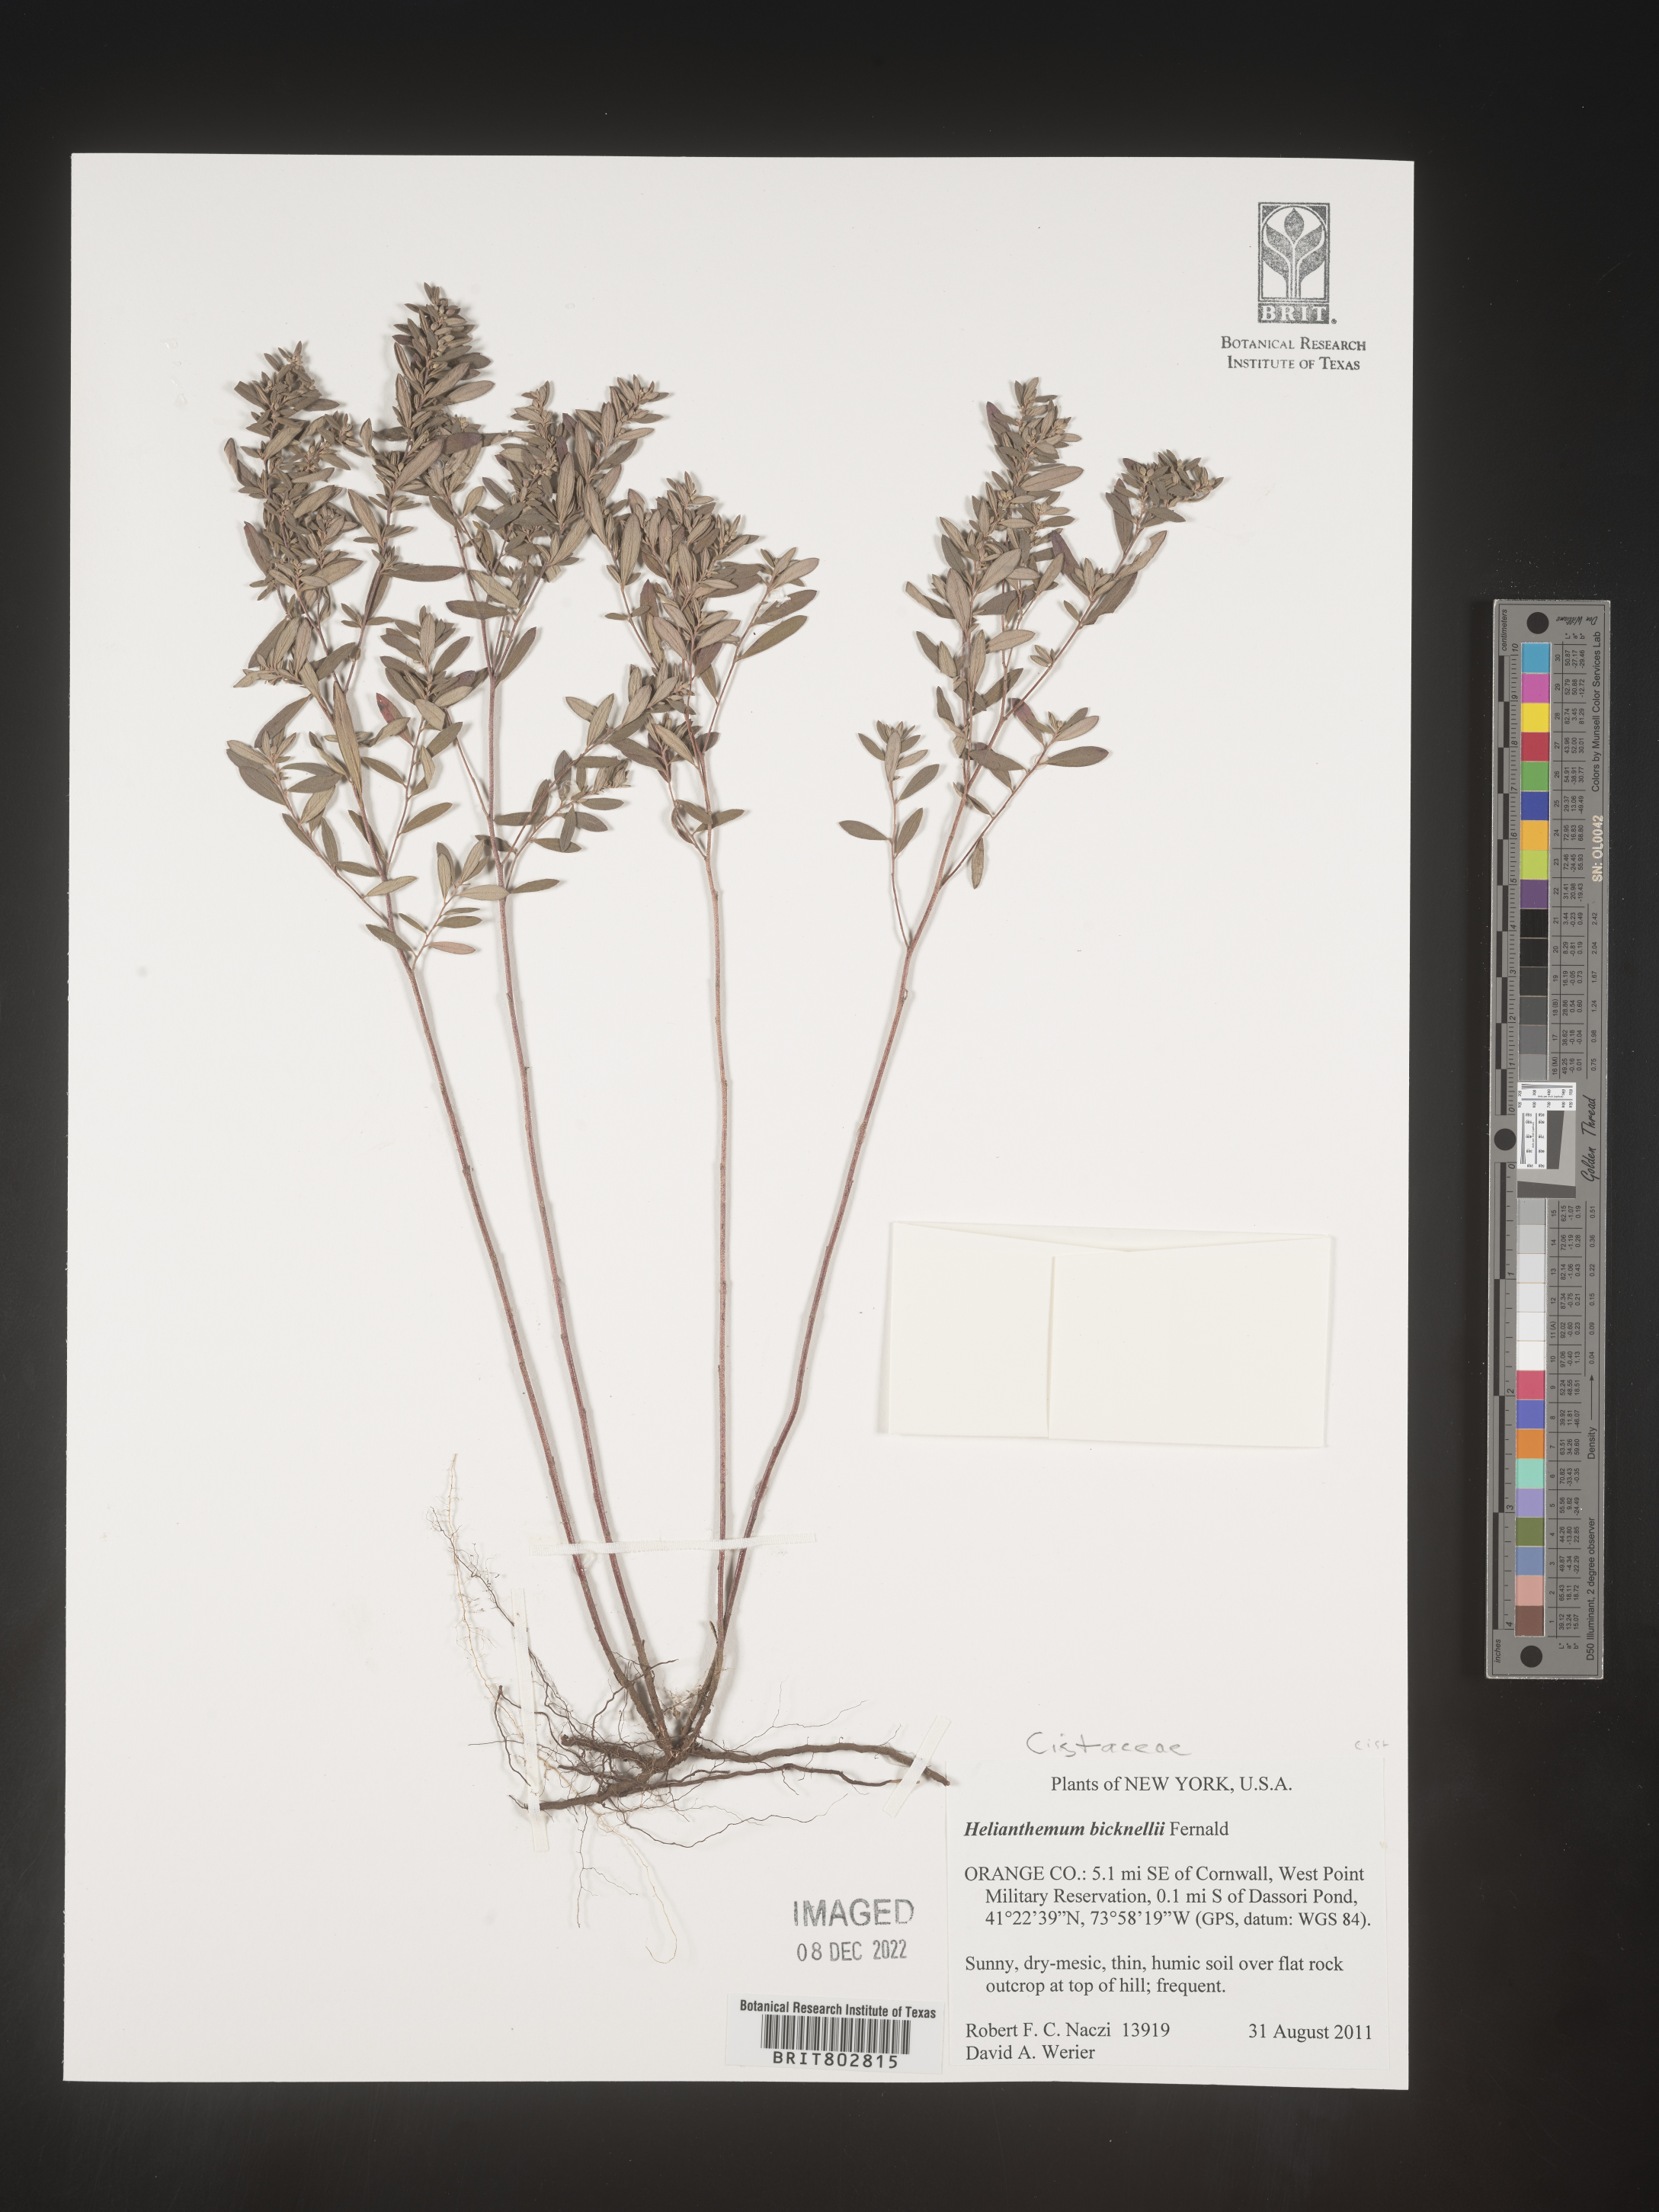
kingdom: Plantae
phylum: Tracheophyta
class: Magnoliopsida
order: Malvales
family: Cistaceae
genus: Crocanthemum
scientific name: Crocanthemum bicknellii
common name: Hoary frostweed
